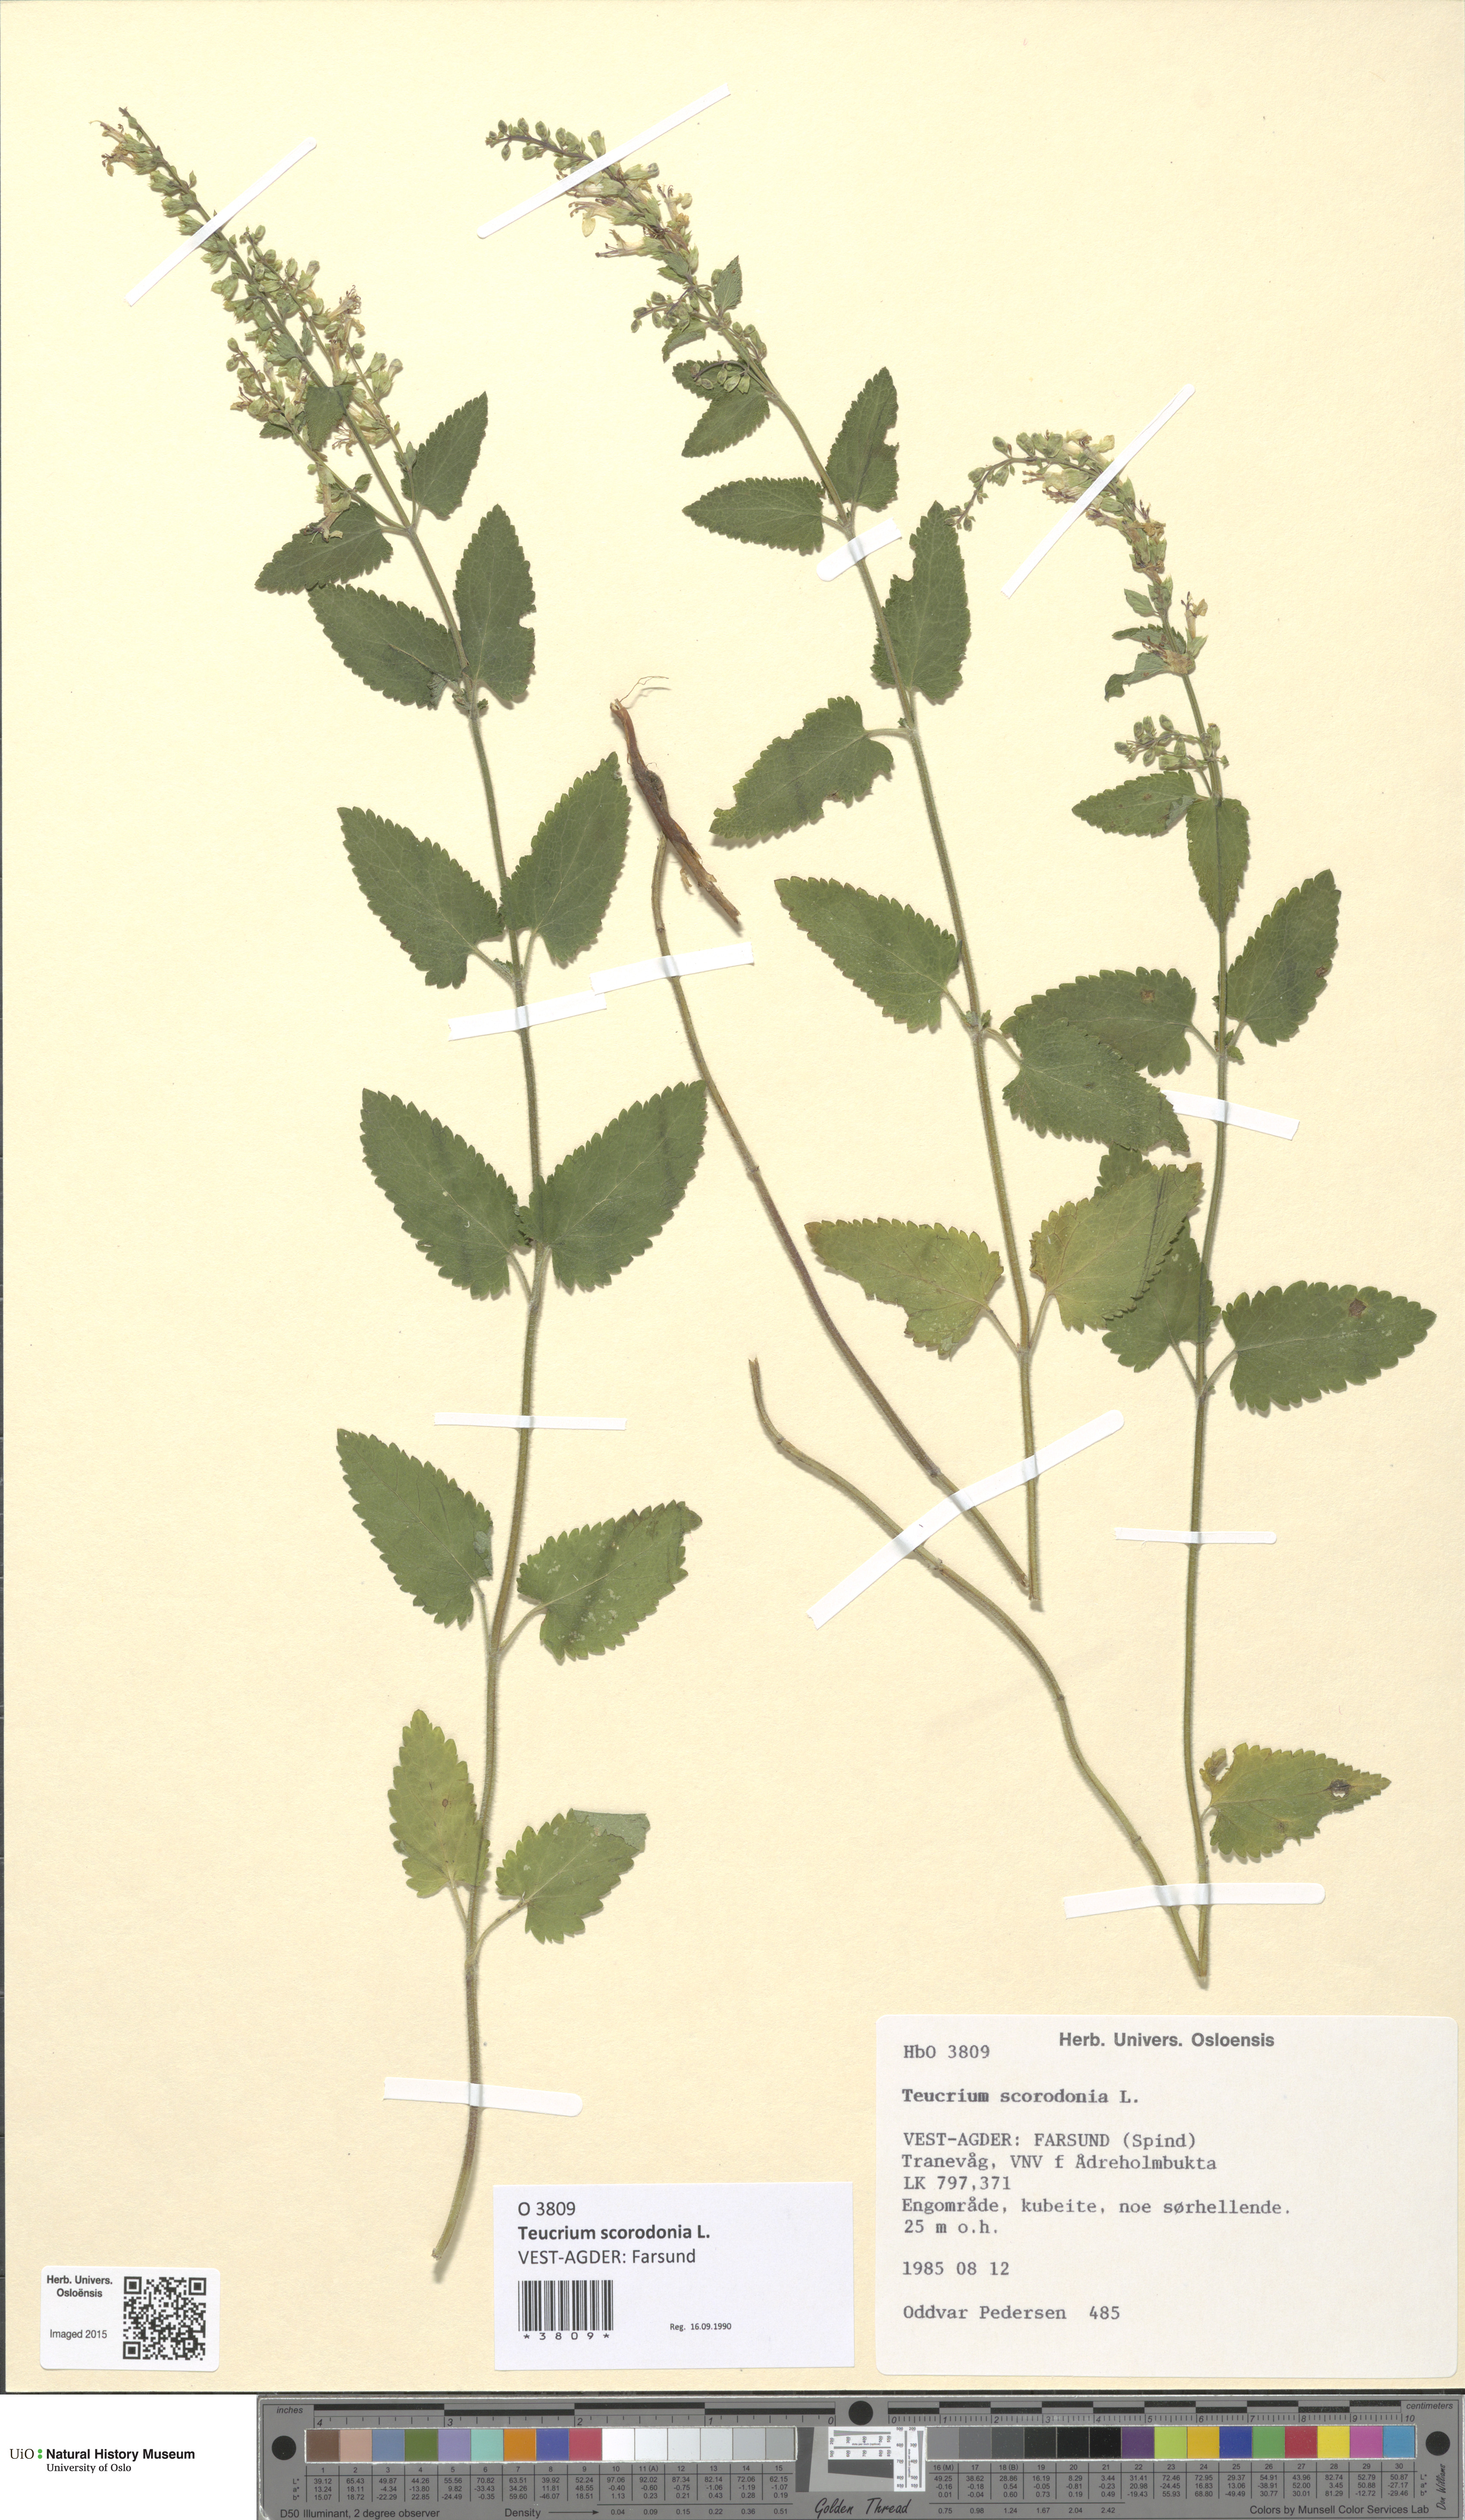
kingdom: Plantae
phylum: Tracheophyta
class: Magnoliopsida
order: Lamiales
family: Lamiaceae
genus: Teucrium
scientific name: Teucrium scorodonia
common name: Woodland germander
